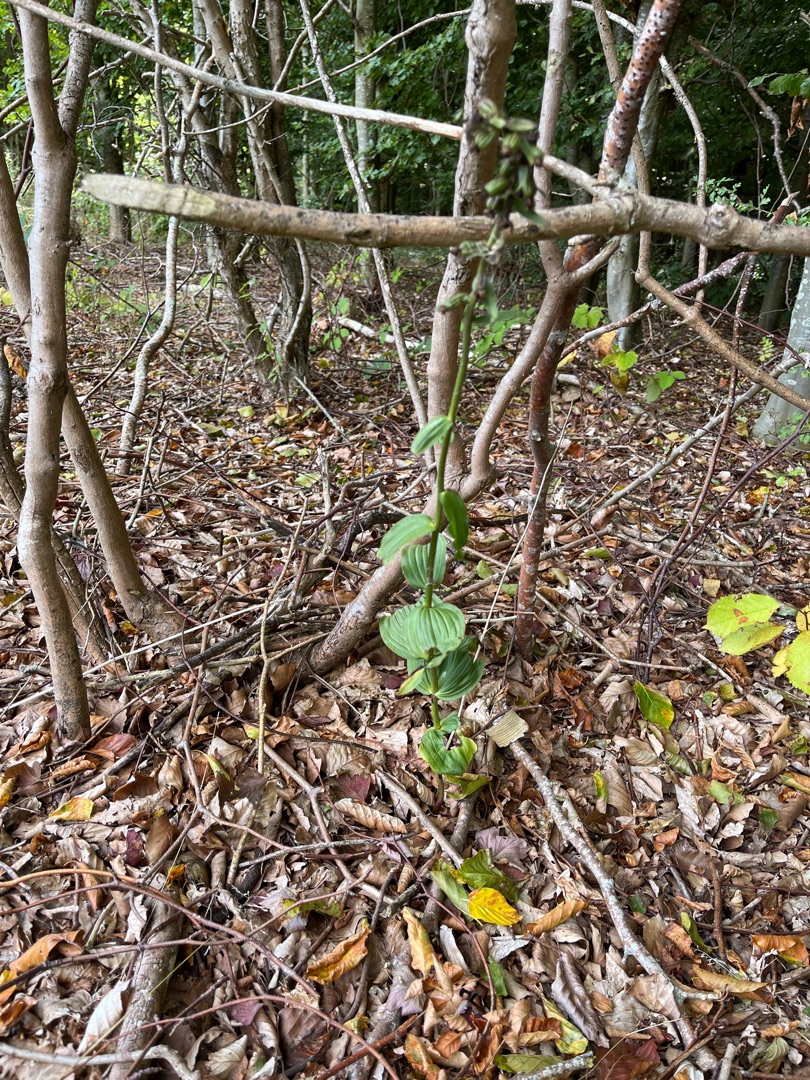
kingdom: Plantae
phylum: Tracheophyta
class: Liliopsida
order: Asparagales
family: Orchidaceae
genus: Epipactis
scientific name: Epipactis helleborine
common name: Skov-hullæbe
